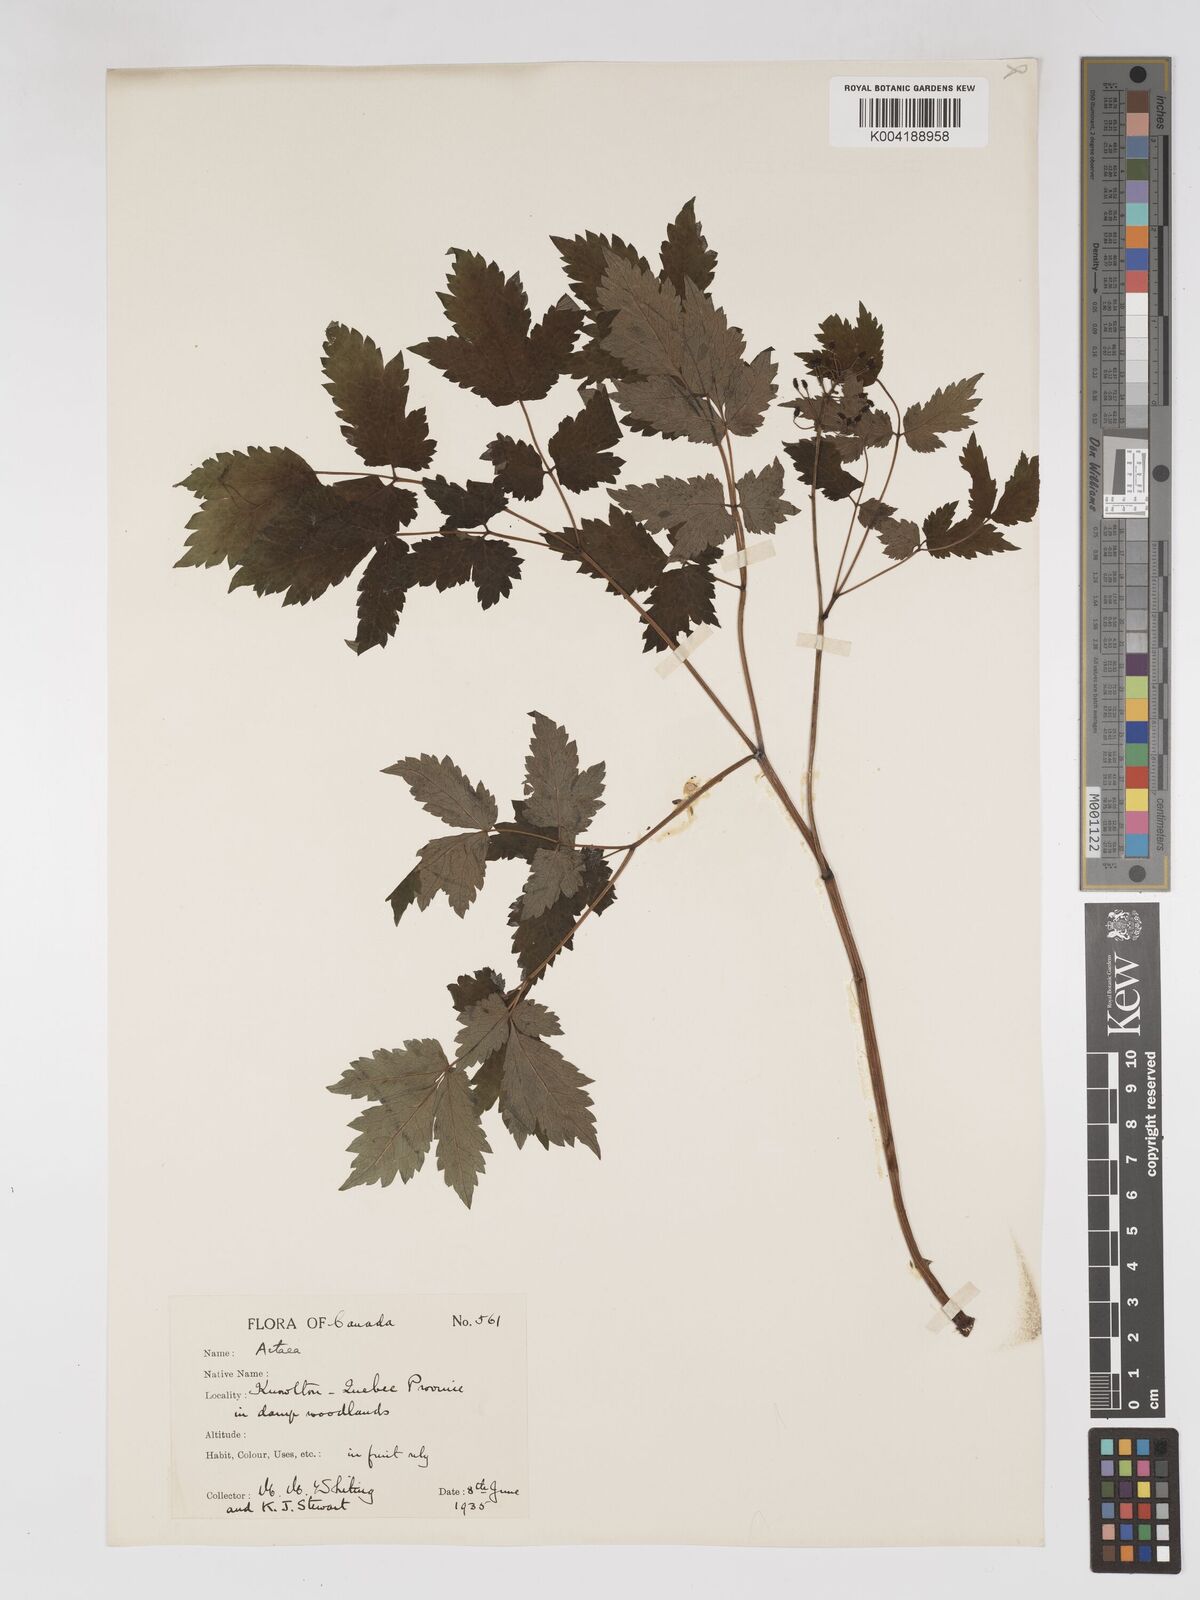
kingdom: Plantae
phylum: Tracheophyta
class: Magnoliopsida
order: Ranunculales
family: Ranunculaceae
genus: Actaea
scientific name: Actaea rubra
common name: Red baneberry
